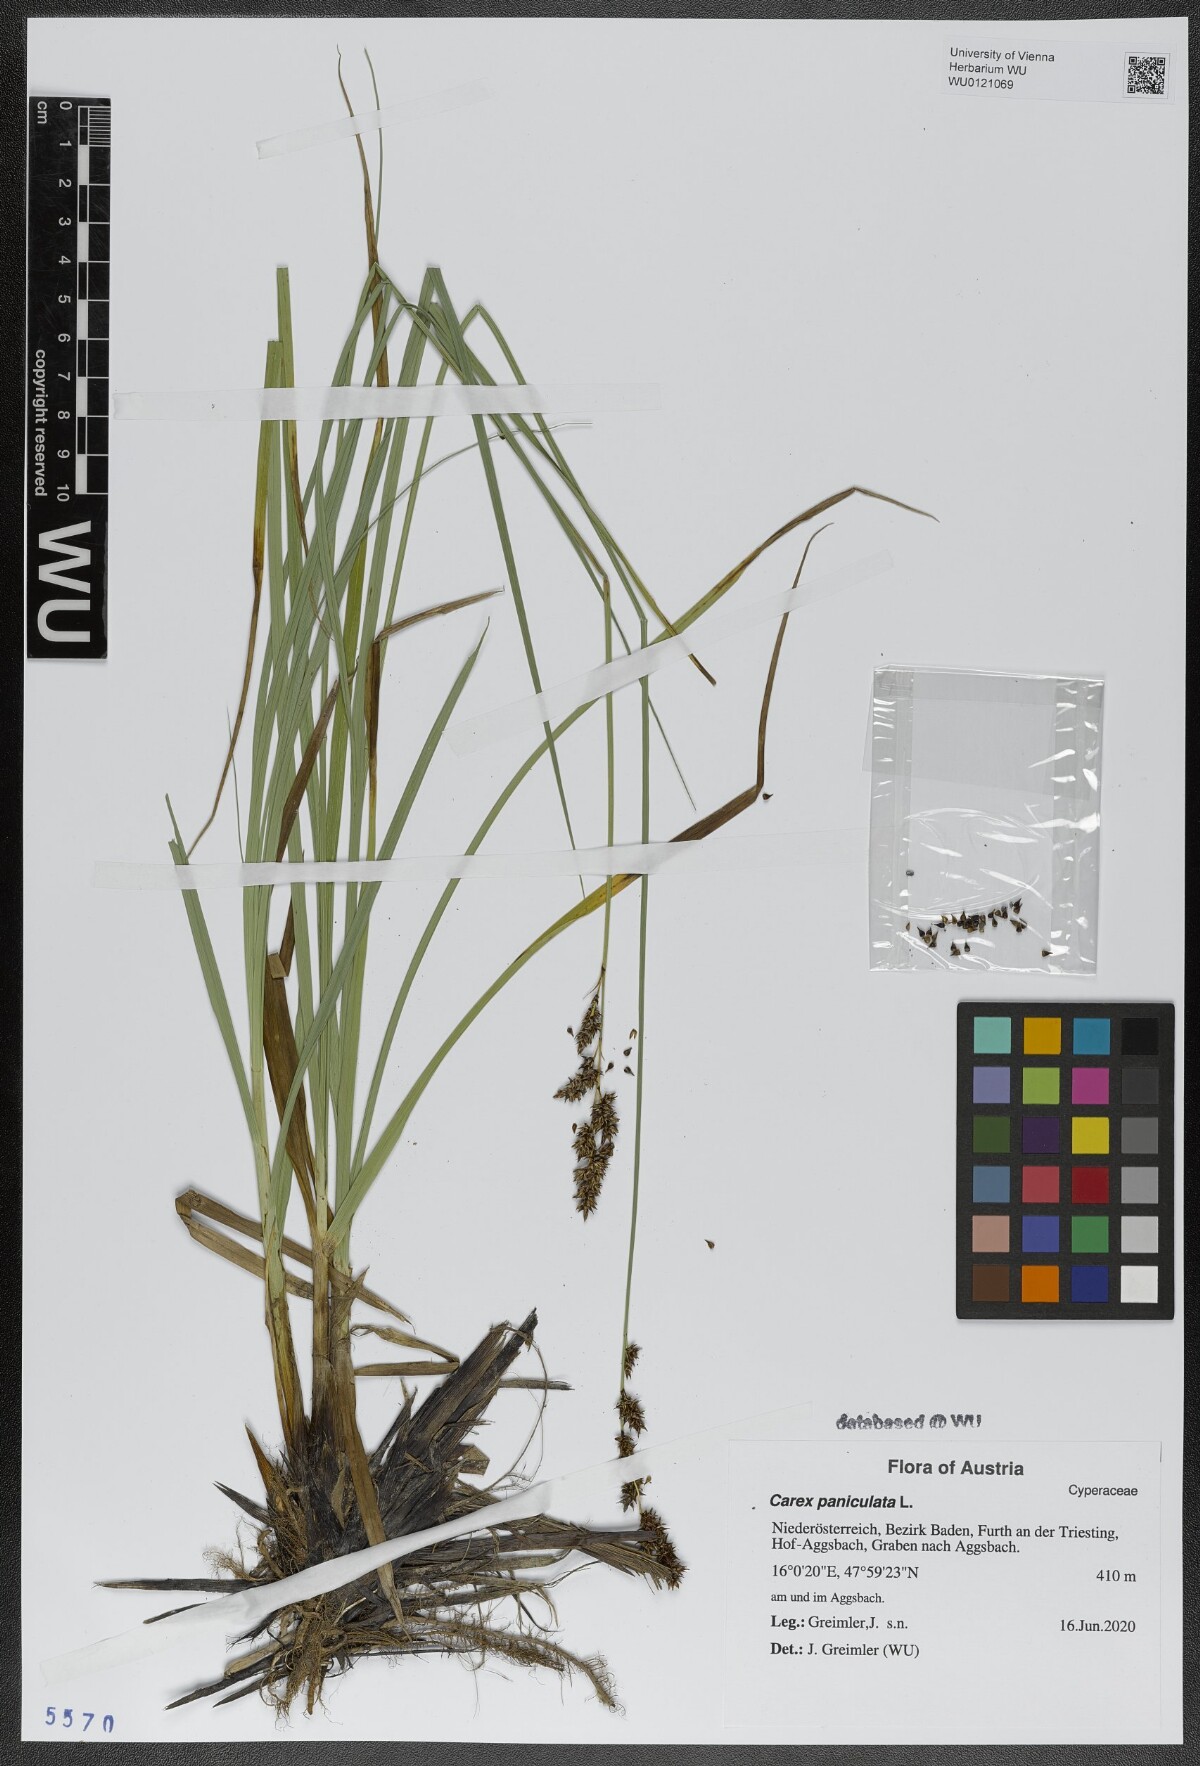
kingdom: Plantae
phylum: Tracheophyta
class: Liliopsida
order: Poales
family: Cyperaceae
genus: Carex
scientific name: Carex paniculata
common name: Greater tussock-sedge
